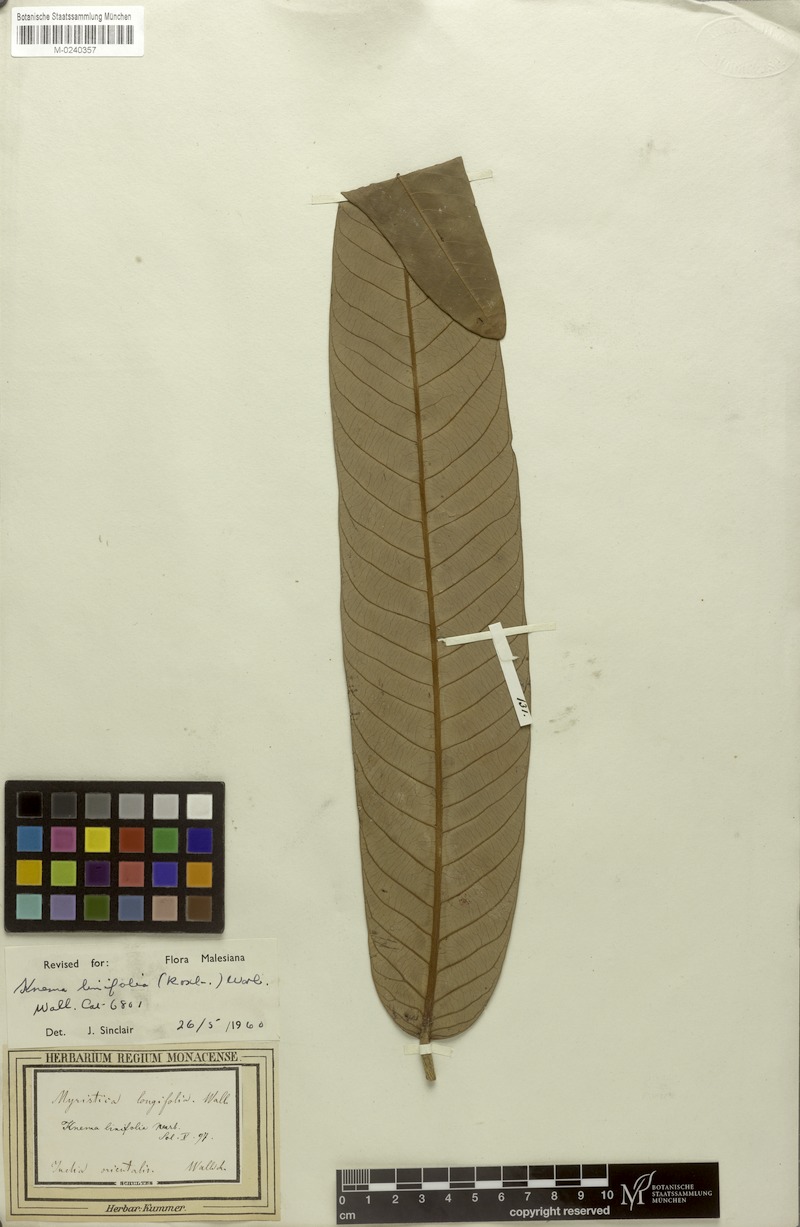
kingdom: Plantae
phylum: Tracheophyta
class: Magnoliopsida
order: Magnoliales
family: Myristicaceae
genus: Knema
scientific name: Knema linifolia
